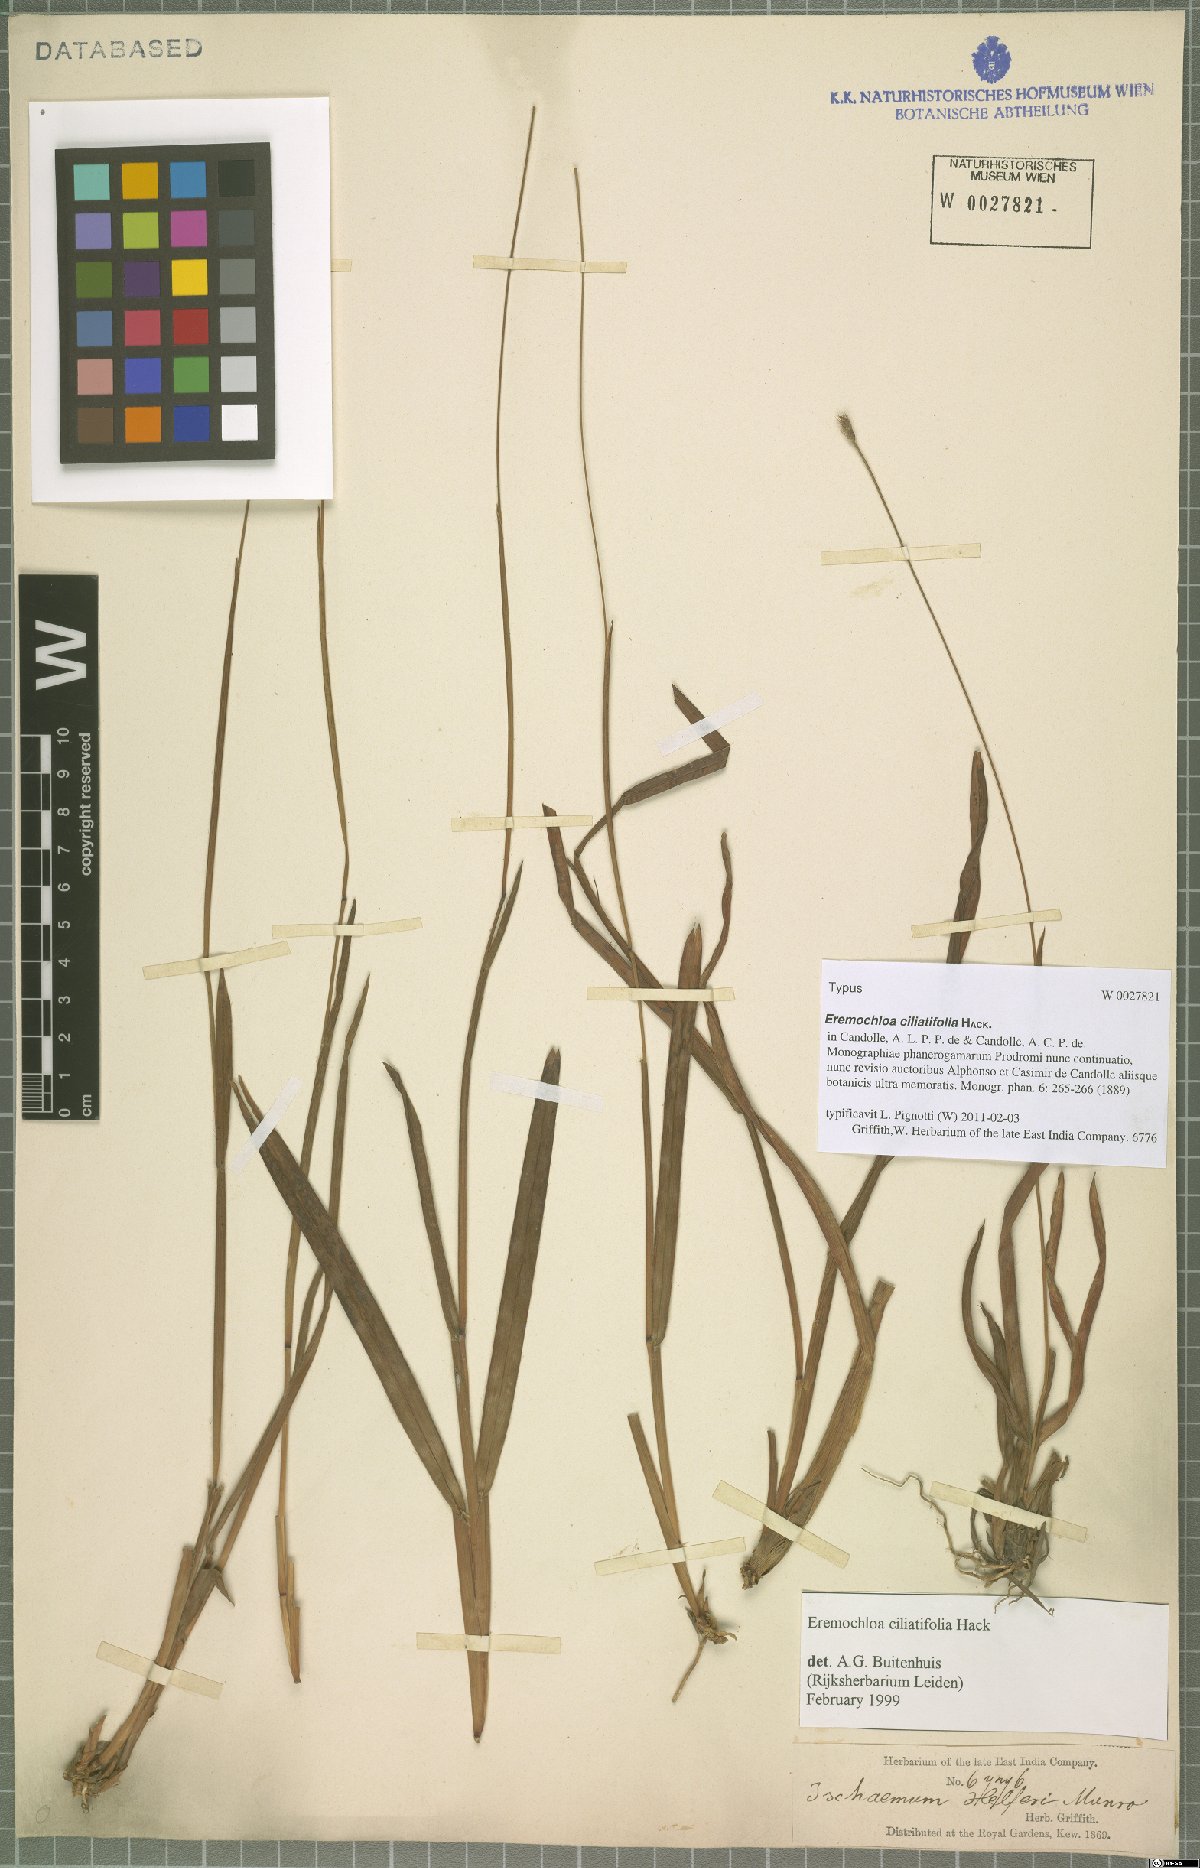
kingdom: Plantae
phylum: Tracheophyta
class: Liliopsida
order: Poales
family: Poaceae
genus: Eremochloa
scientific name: Eremochloa ciliatifolia
